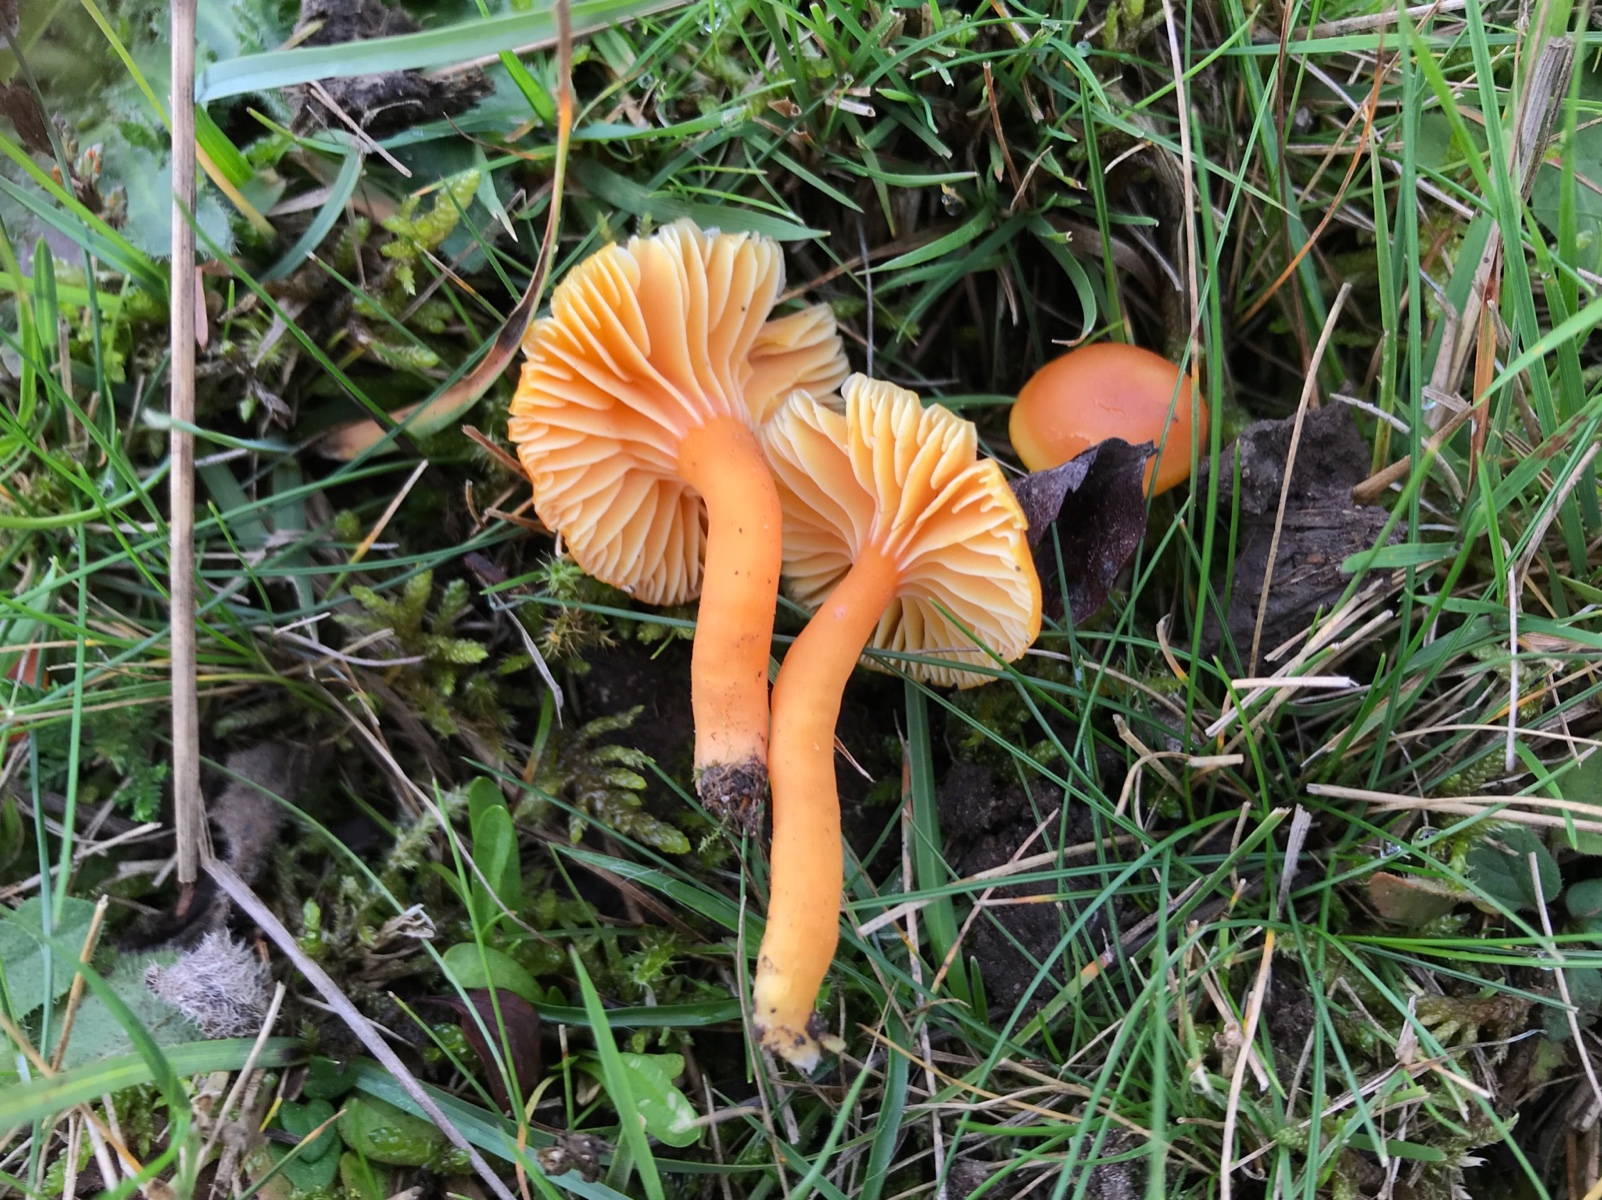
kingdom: Fungi
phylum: Basidiomycota
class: Agaricomycetes
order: Agaricales
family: Hygrophoraceae
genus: Hygrocybe
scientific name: Hygrocybe reidii
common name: honning-vokshat
